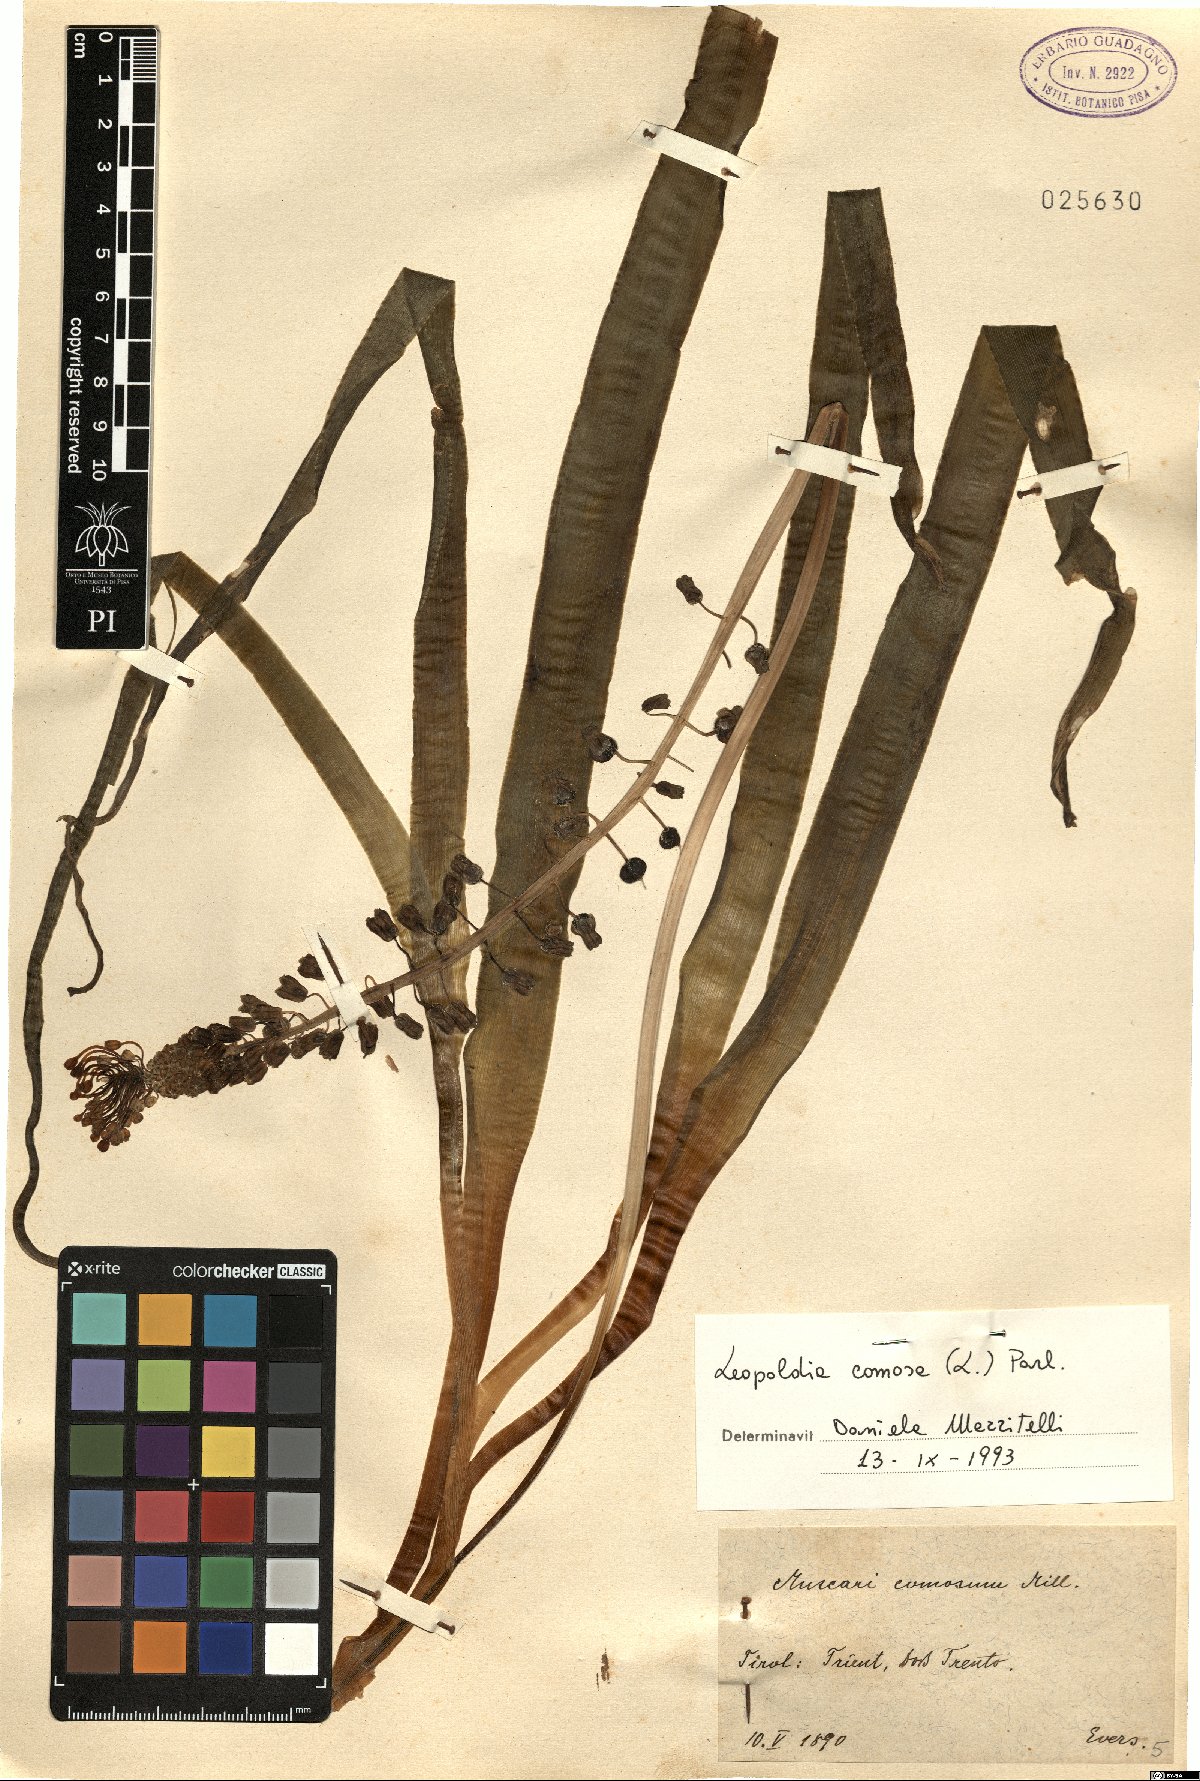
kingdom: Plantae
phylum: Tracheophyta
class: Liliopsida
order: Asparagales
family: Asparagaceae
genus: Muscari
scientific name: Muscari comosum
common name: Tassel hyacinth
